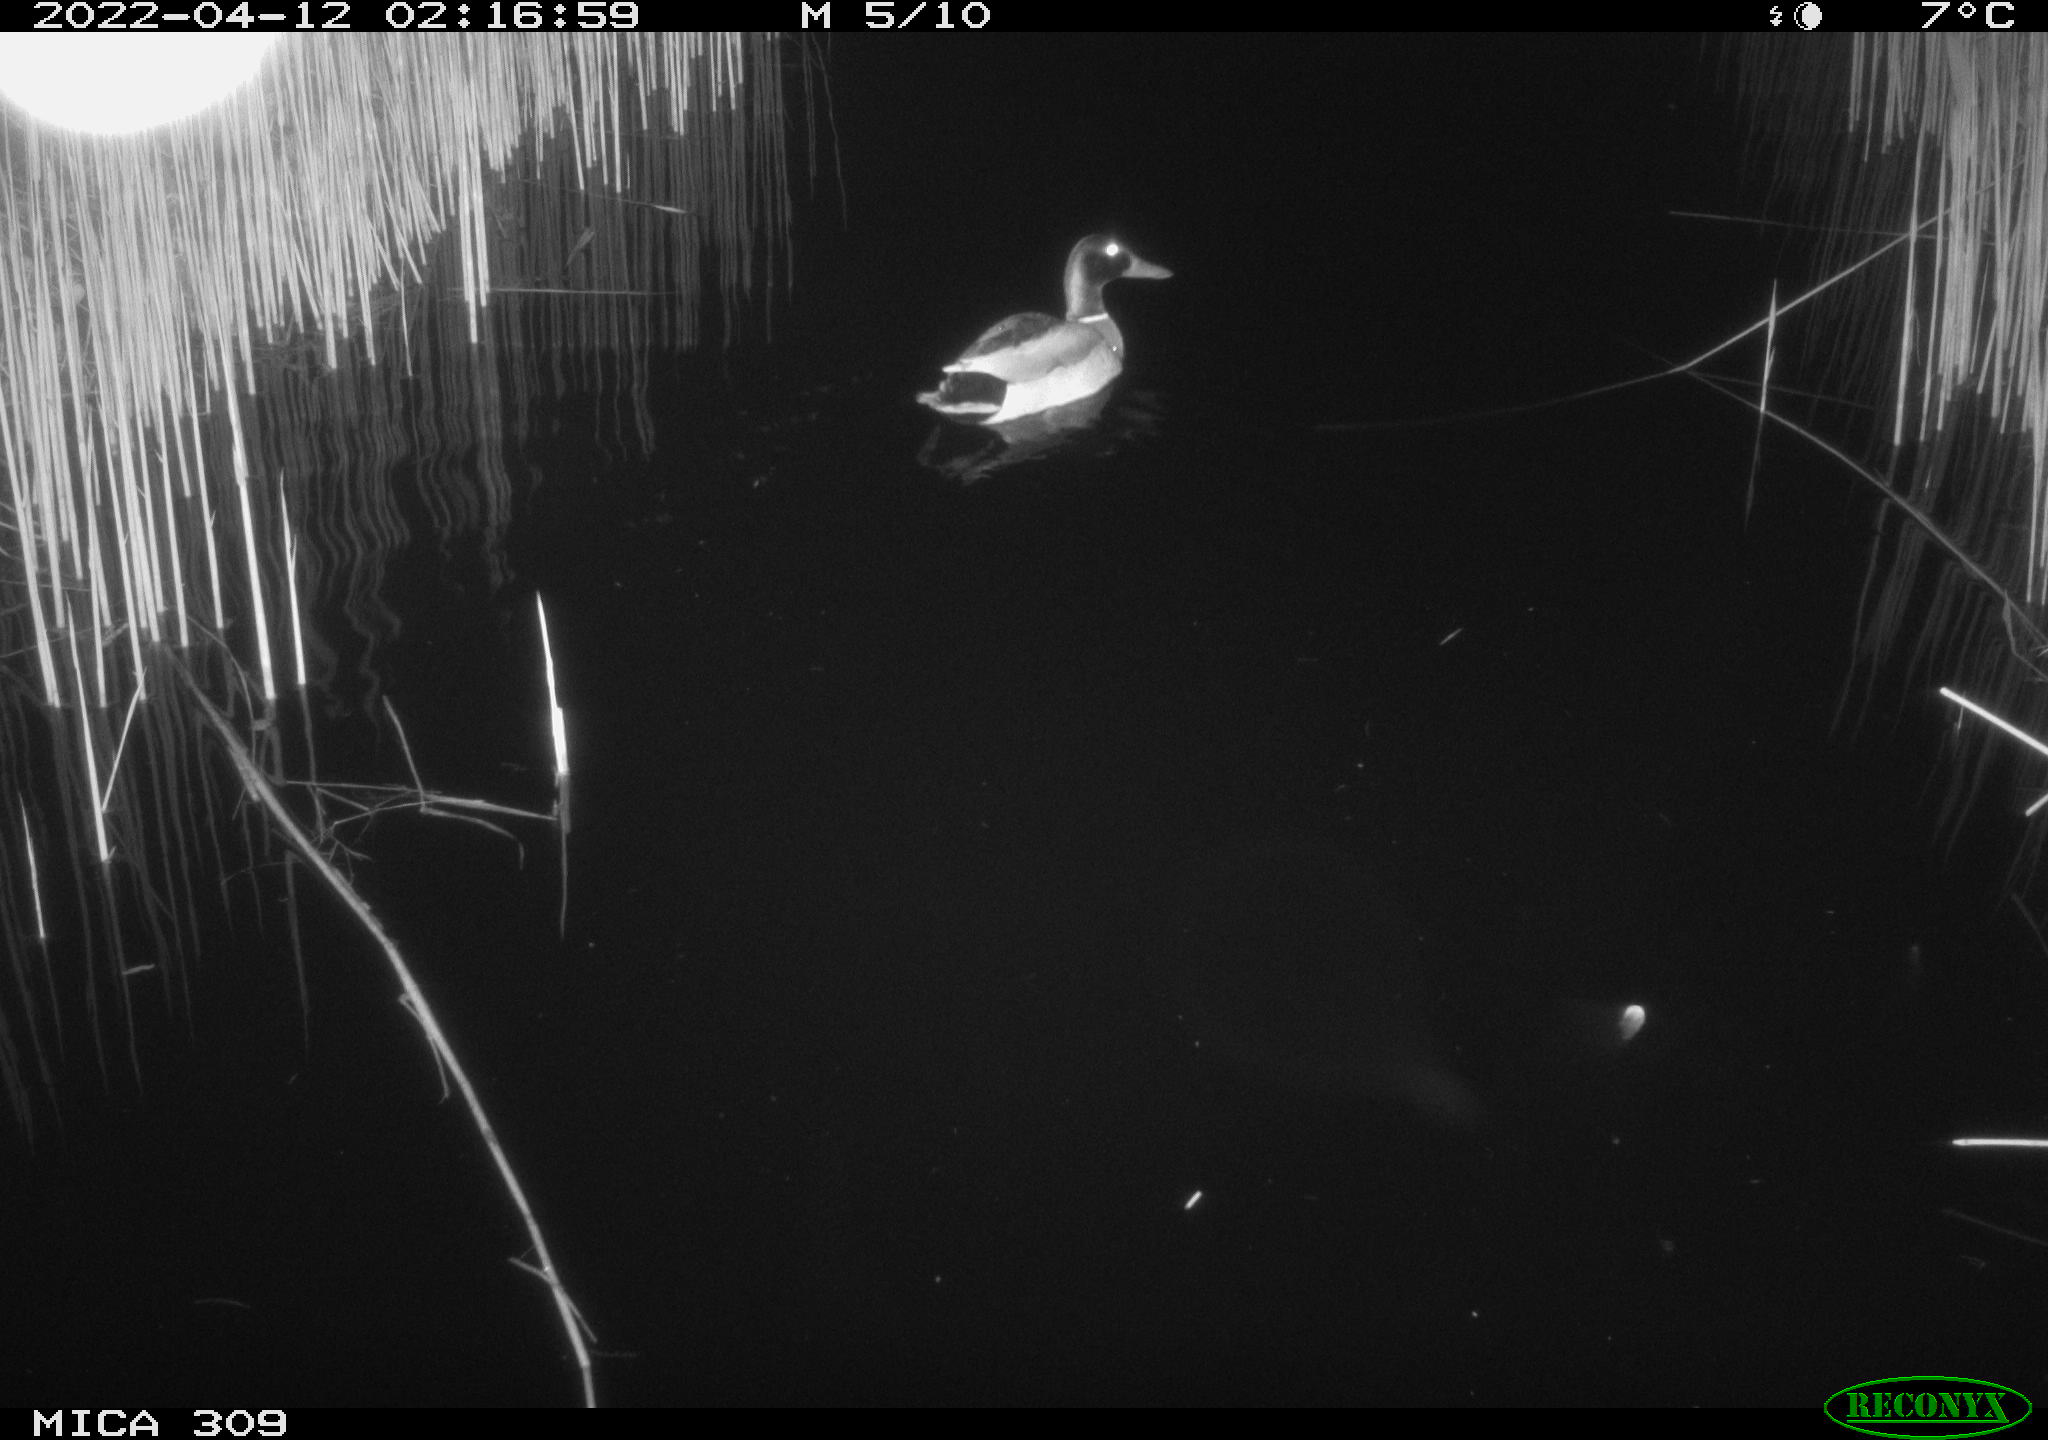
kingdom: Animalia
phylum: Chordata
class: Aves
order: Anseriformes
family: Anatidae
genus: Anas
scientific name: Anas platyrhynchos
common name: Mallard
